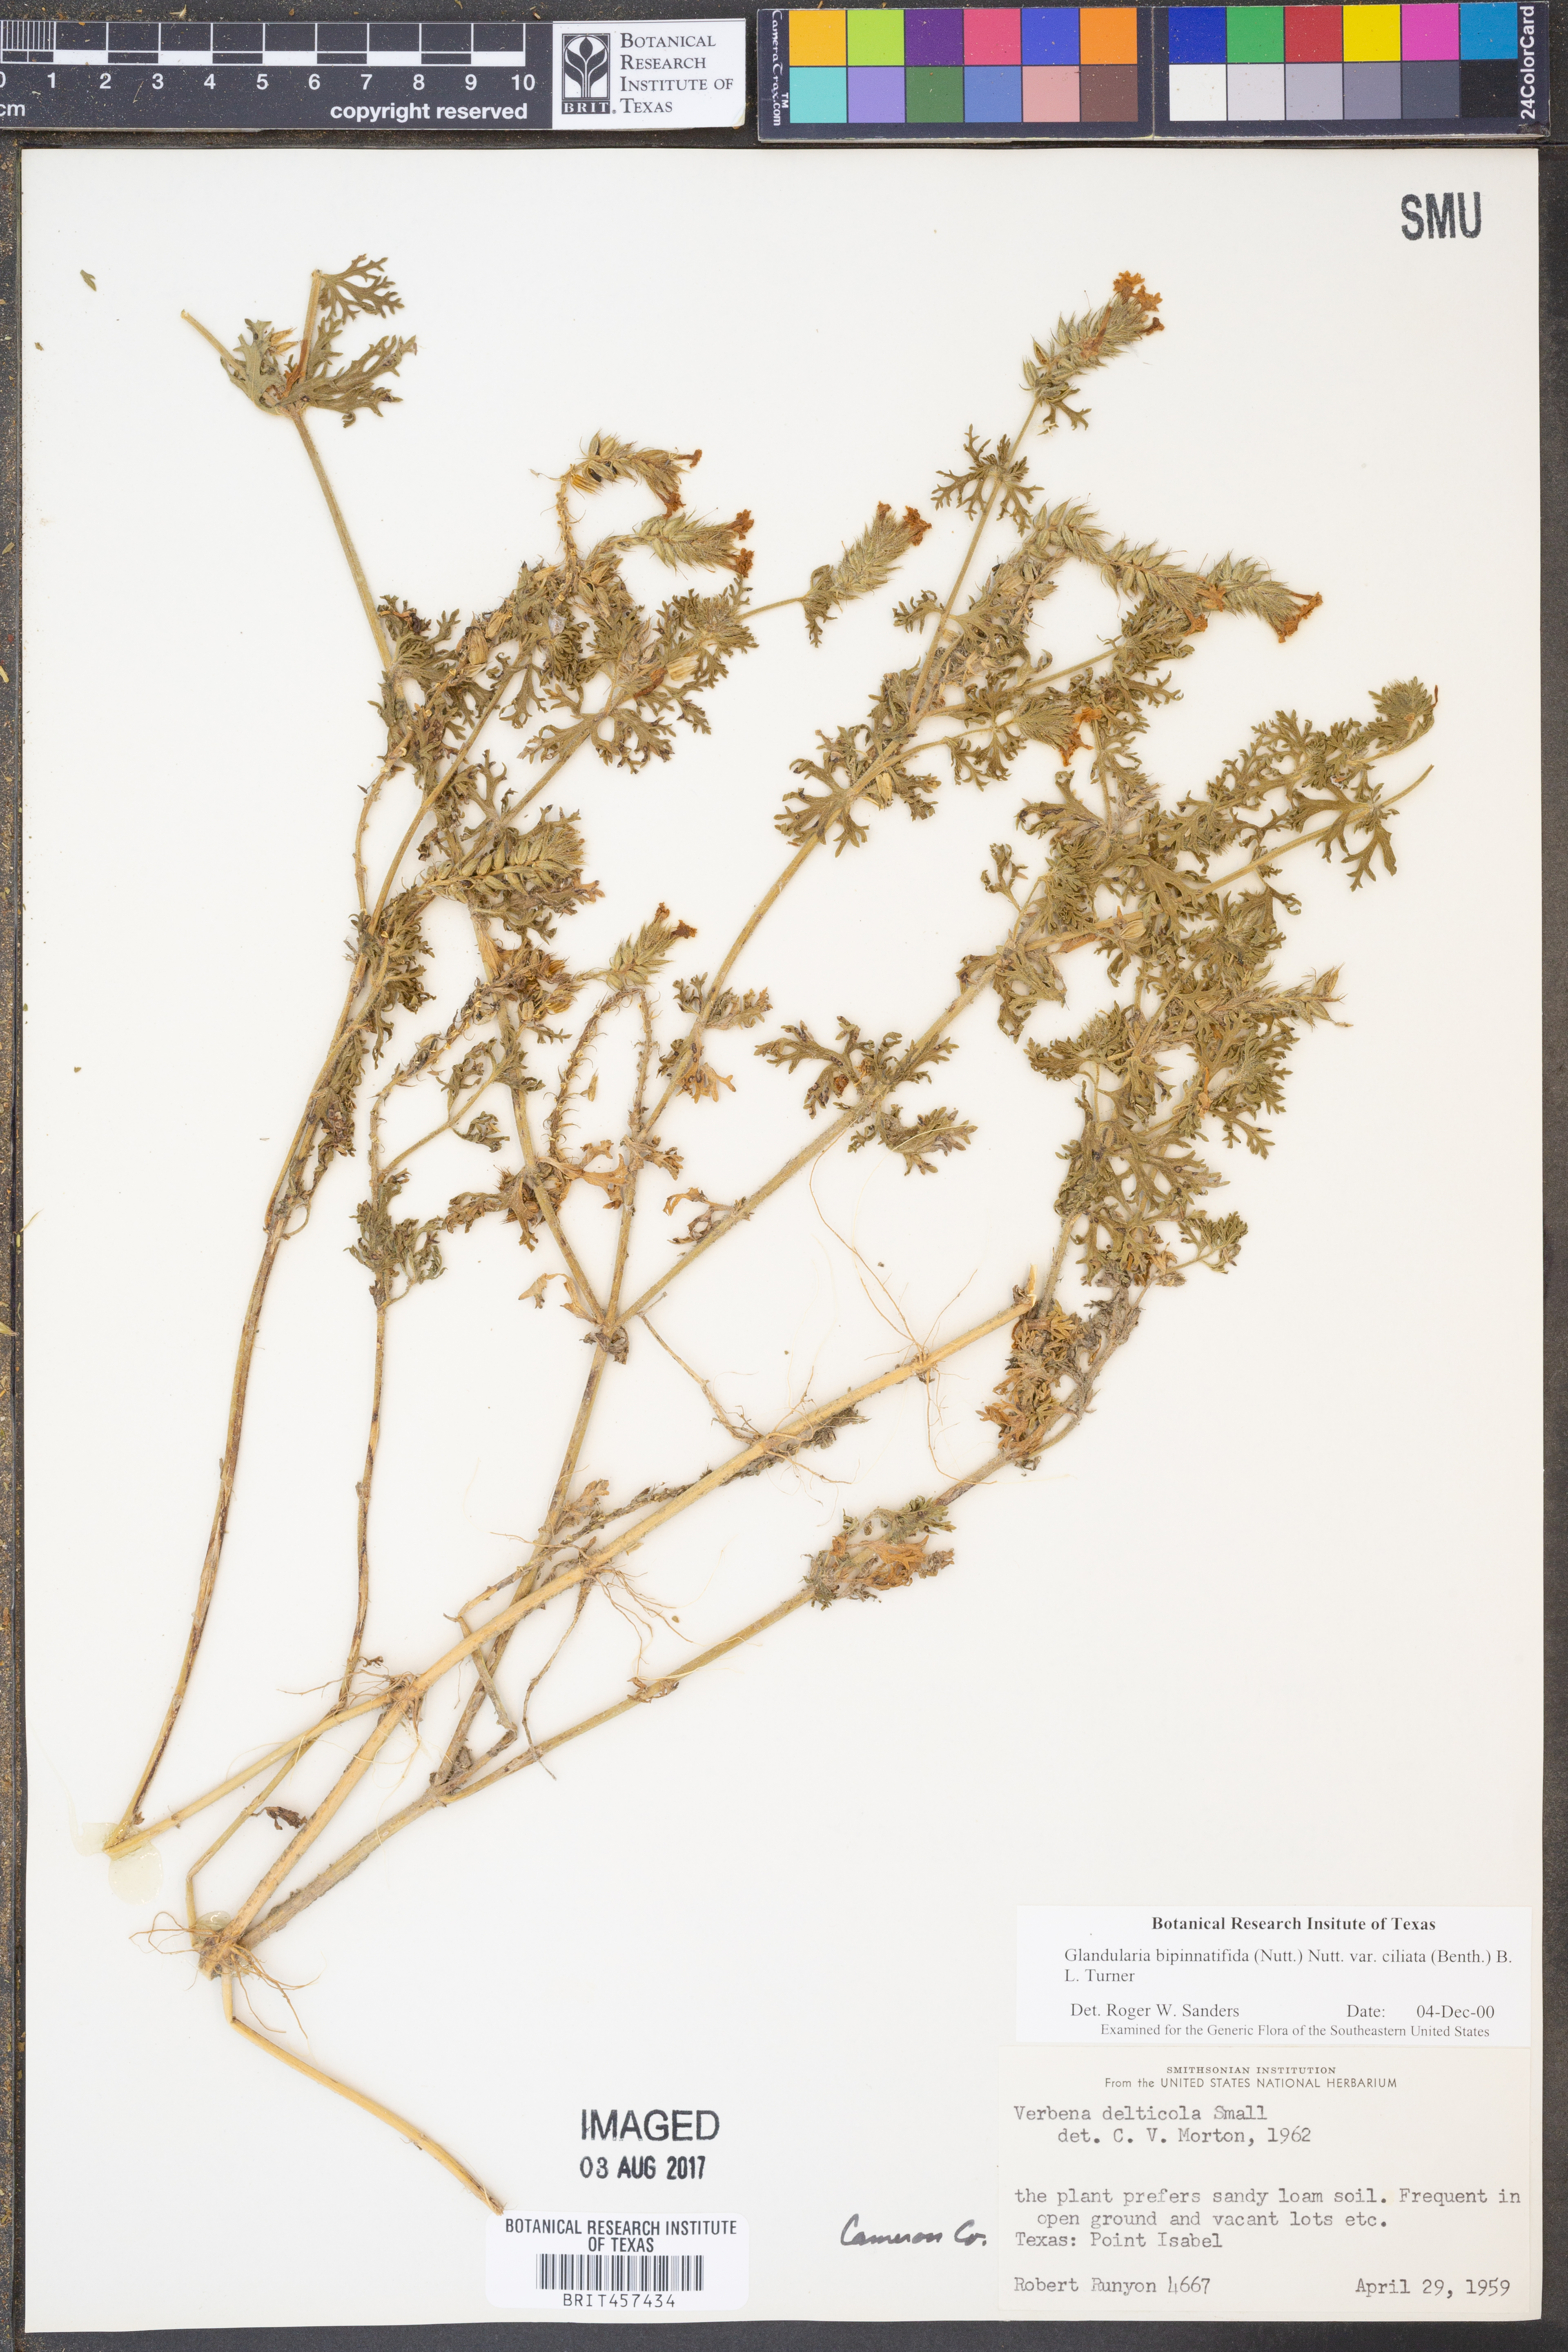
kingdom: Plantae
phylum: Tracheophyta
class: Magnoliopsida
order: Lamiales
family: Verbenaceae
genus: Verbena
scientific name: Verbena bipinnatifida
